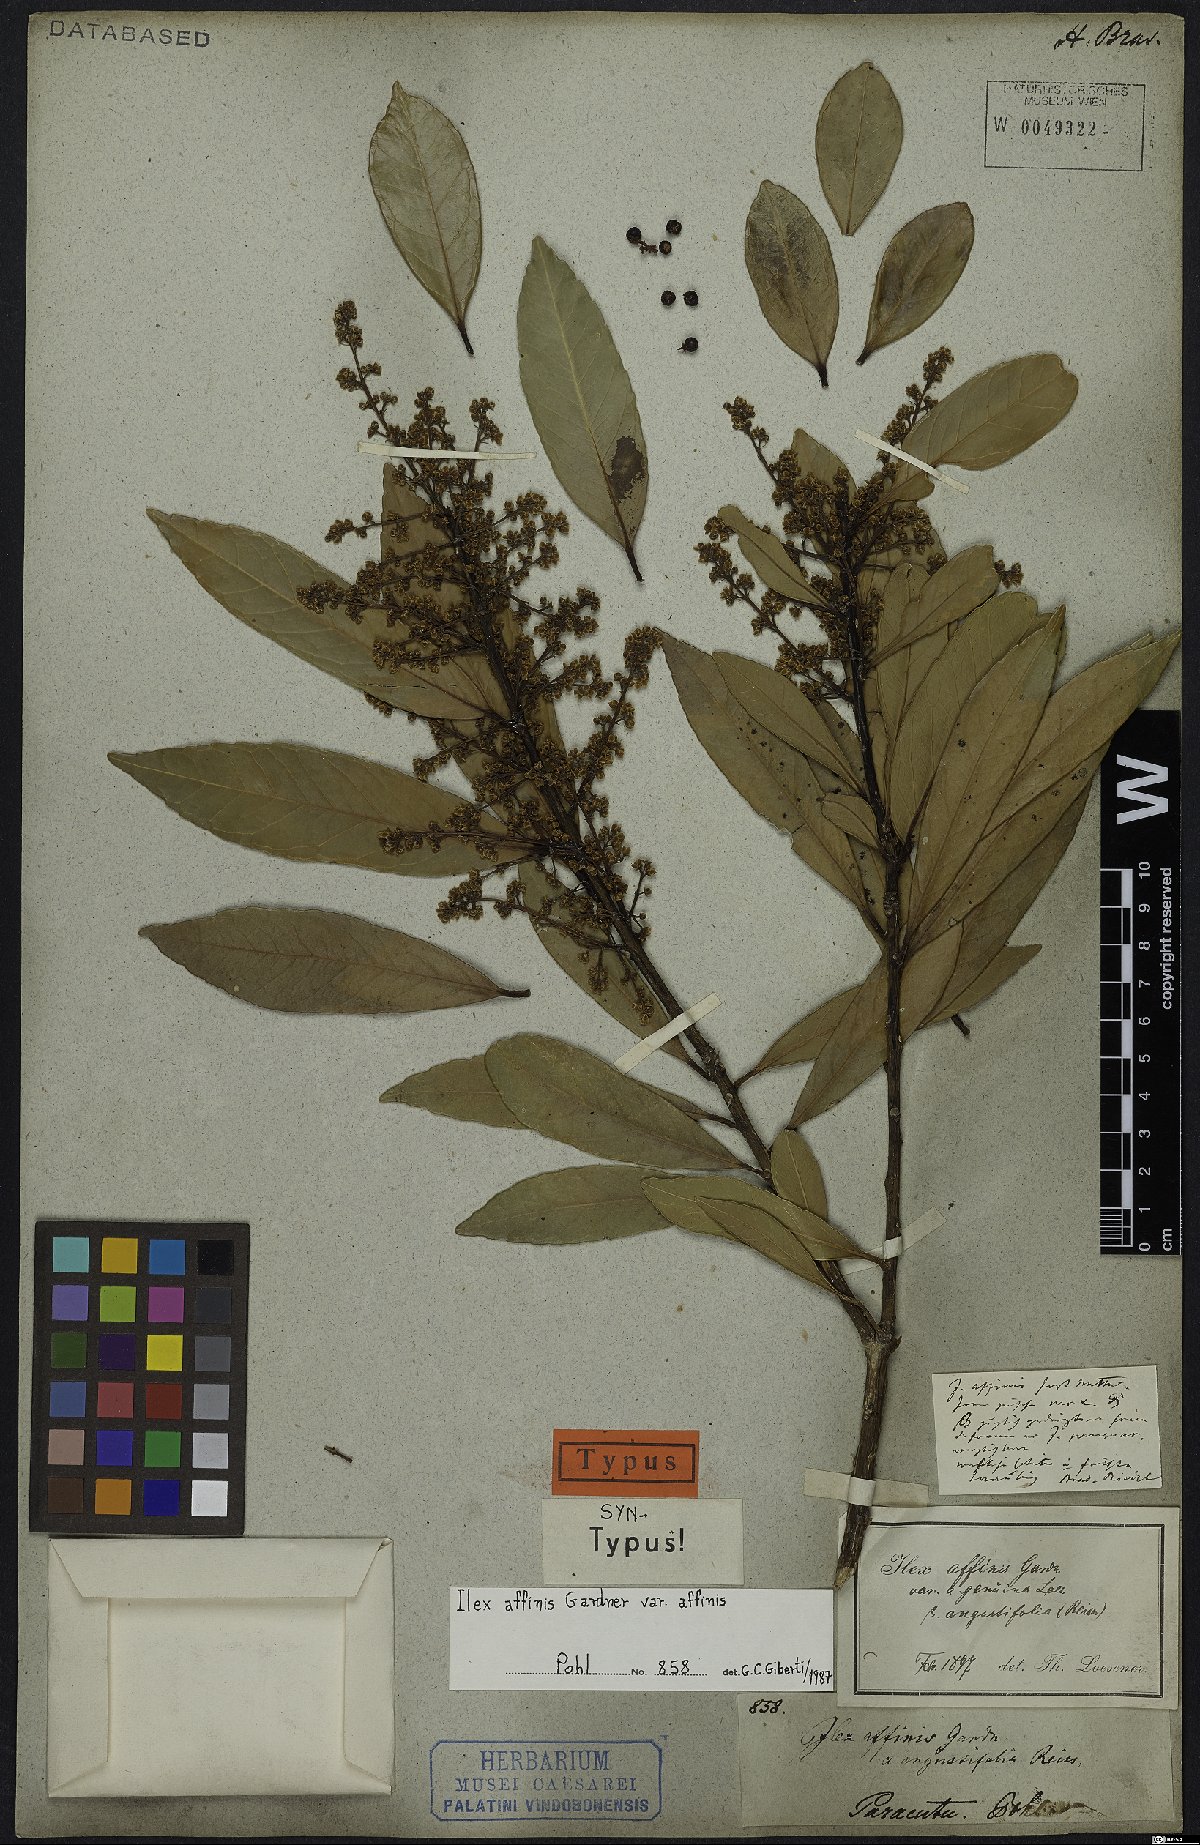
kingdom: Plantae
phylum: Tracheophyta
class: Magnoliopsida
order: Aquifoliales
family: Aquifoliaceae
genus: Ilex
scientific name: Ilex affinis
